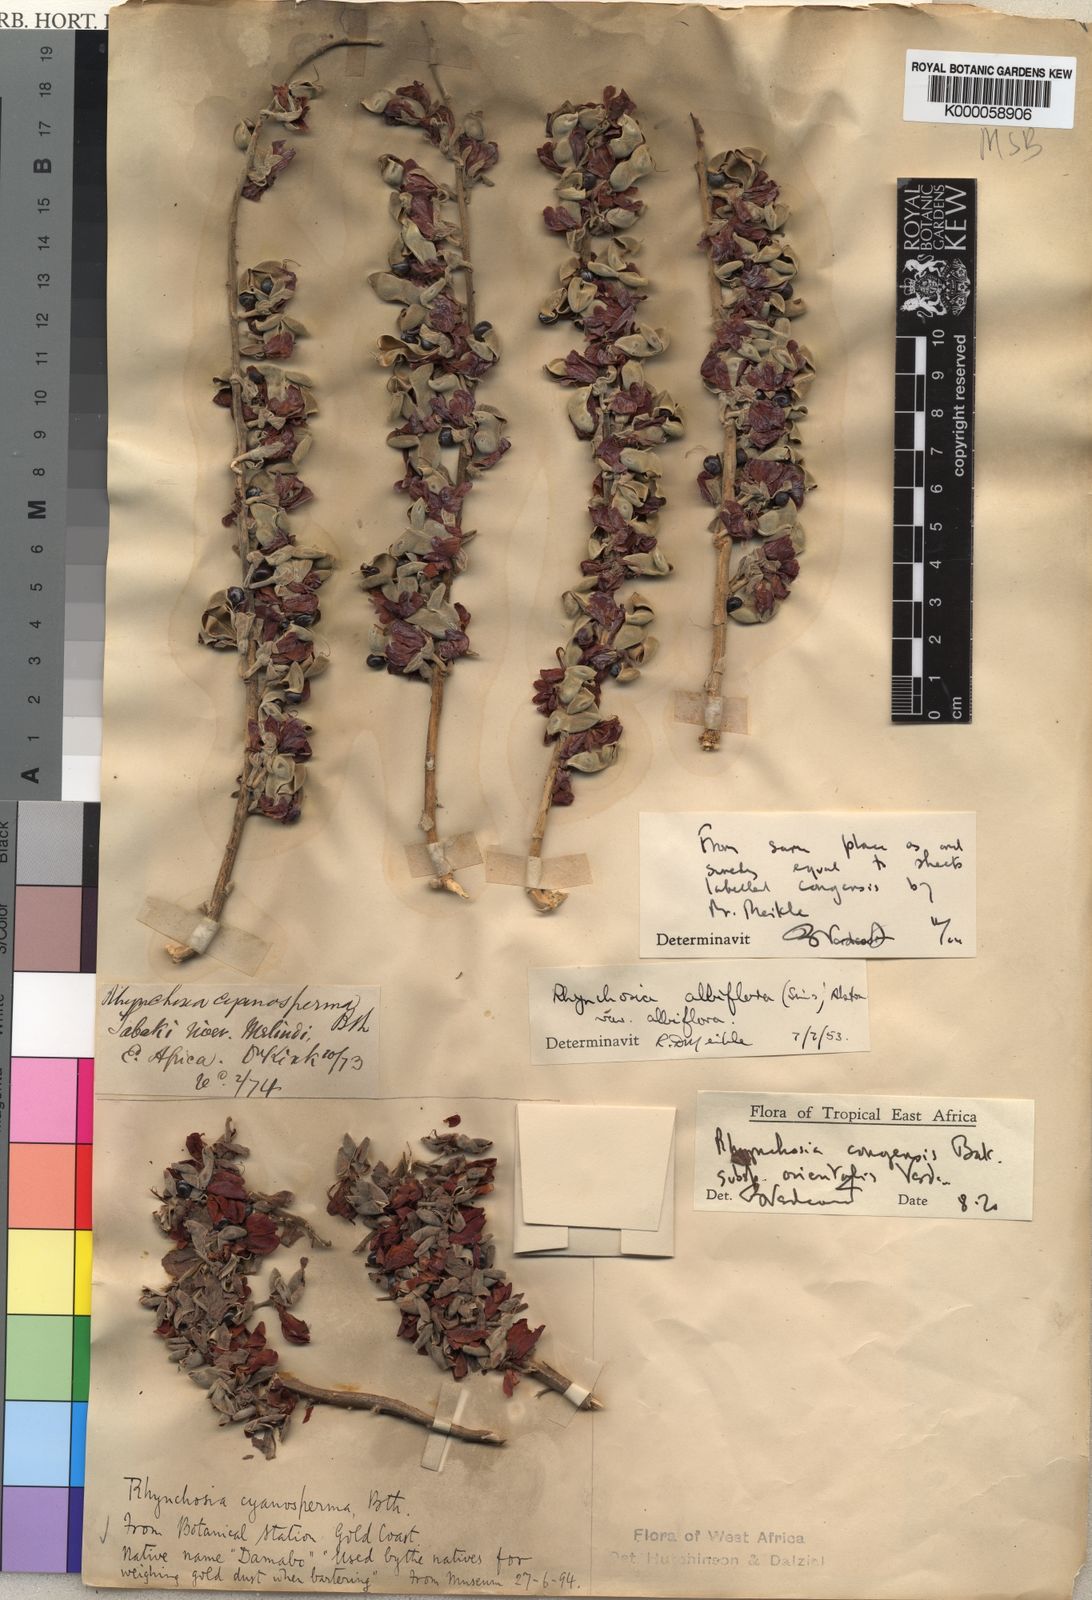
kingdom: Plantae
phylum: Tracheophyta
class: Magnoliopsida
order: Fabales
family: Fabaceae
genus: Rhynchosia
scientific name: Rhynchosia congensis
